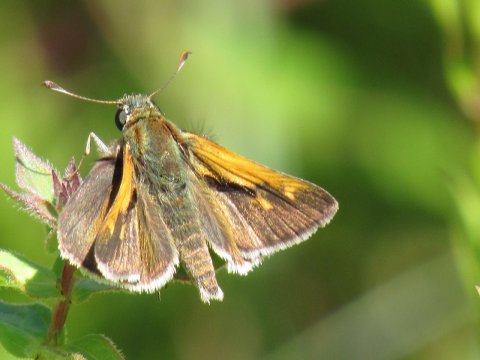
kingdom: Animalia
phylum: Arthropoda
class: Insecta
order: Lepidoptera
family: Hesperiidae
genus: Polites
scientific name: Polites themistocles
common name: Tawny-edged Skipper
